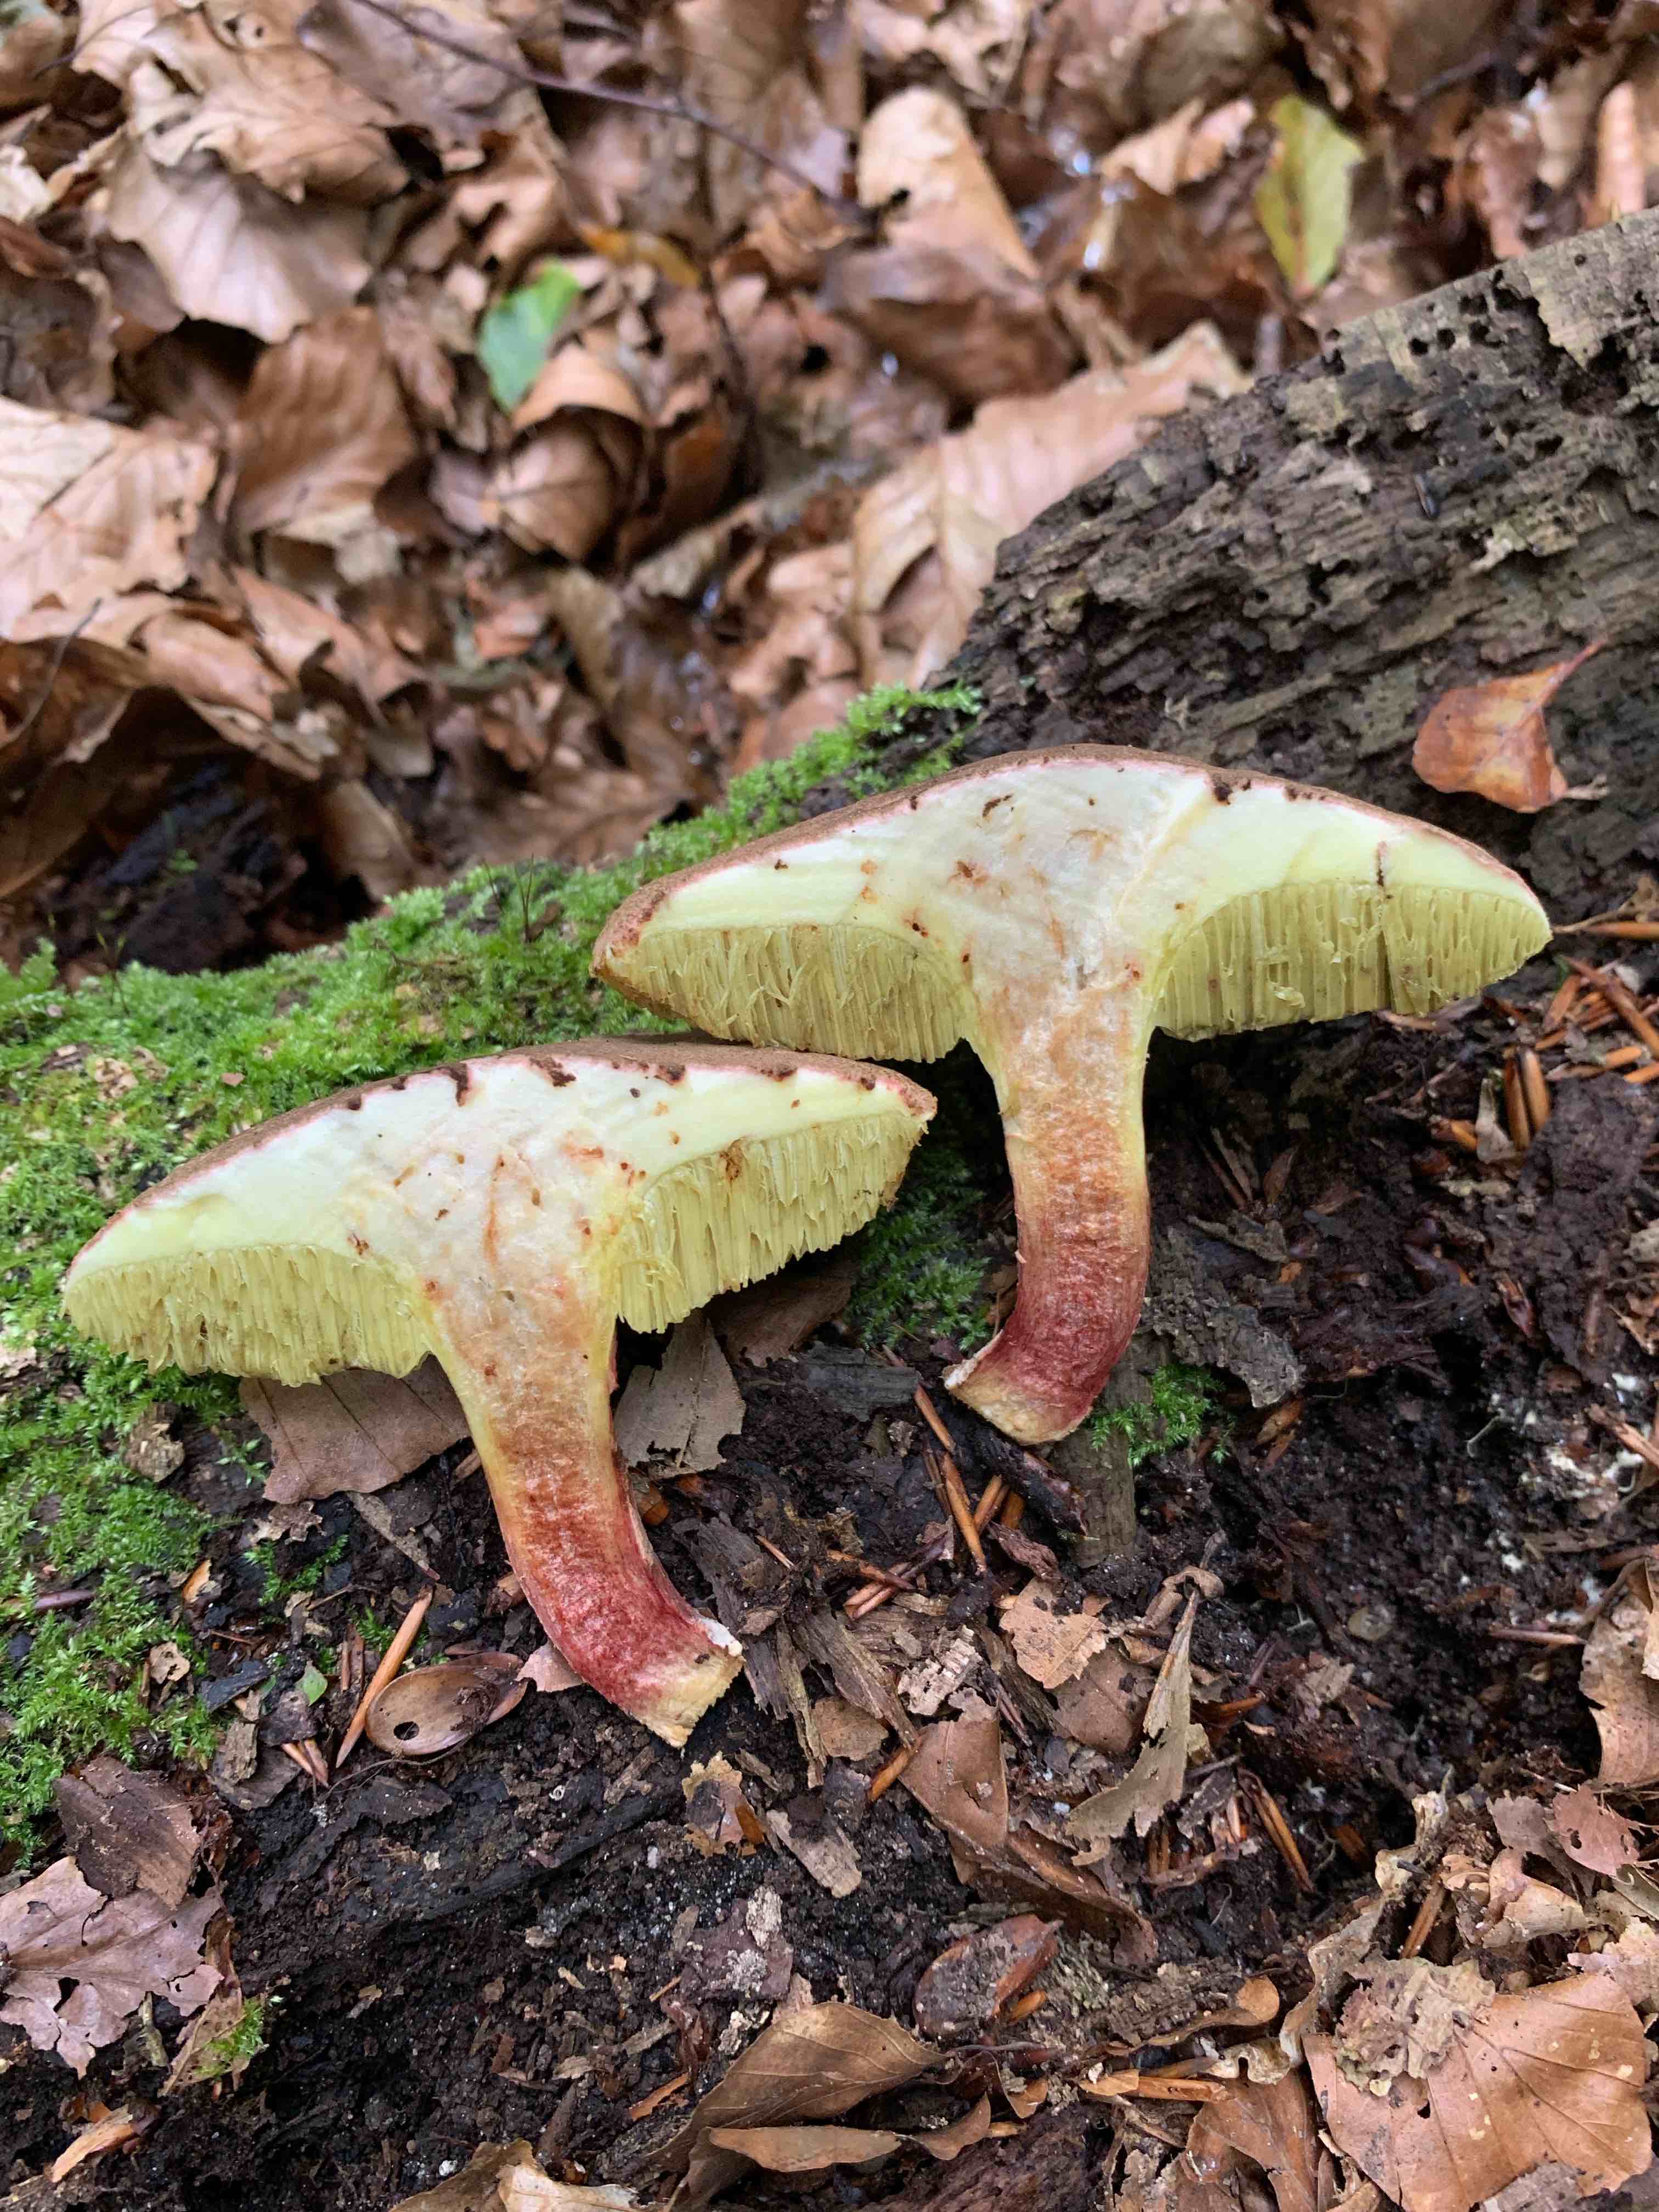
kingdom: Fungi
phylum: Basidiomycota
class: Agaricomycetes
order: Boletales
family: Boletaceae
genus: Xerocomellus
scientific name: Xerocomellus cisalpinus
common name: finsprukken rørhat
